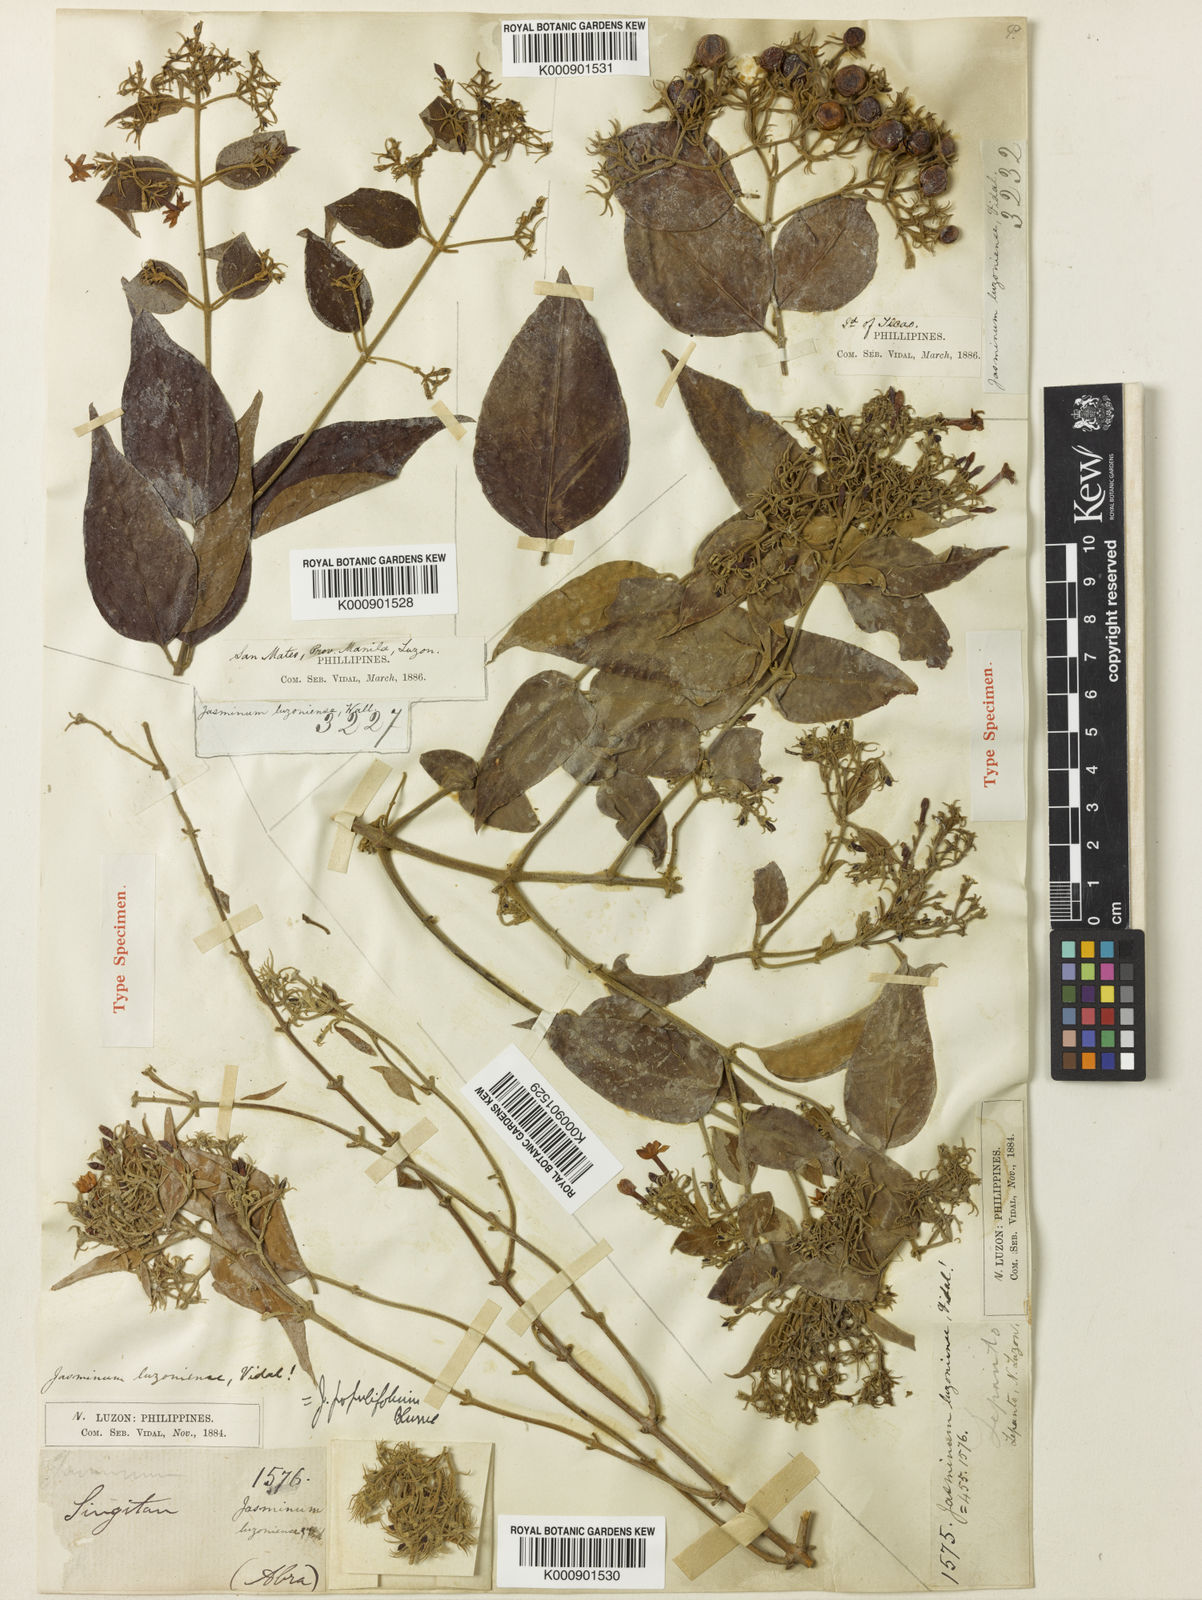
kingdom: Plantae
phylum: Tracheophyta
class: Magnoliopsida
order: Lamiales
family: Oleaceae
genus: Jasminum
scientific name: Jasminum populifolium
